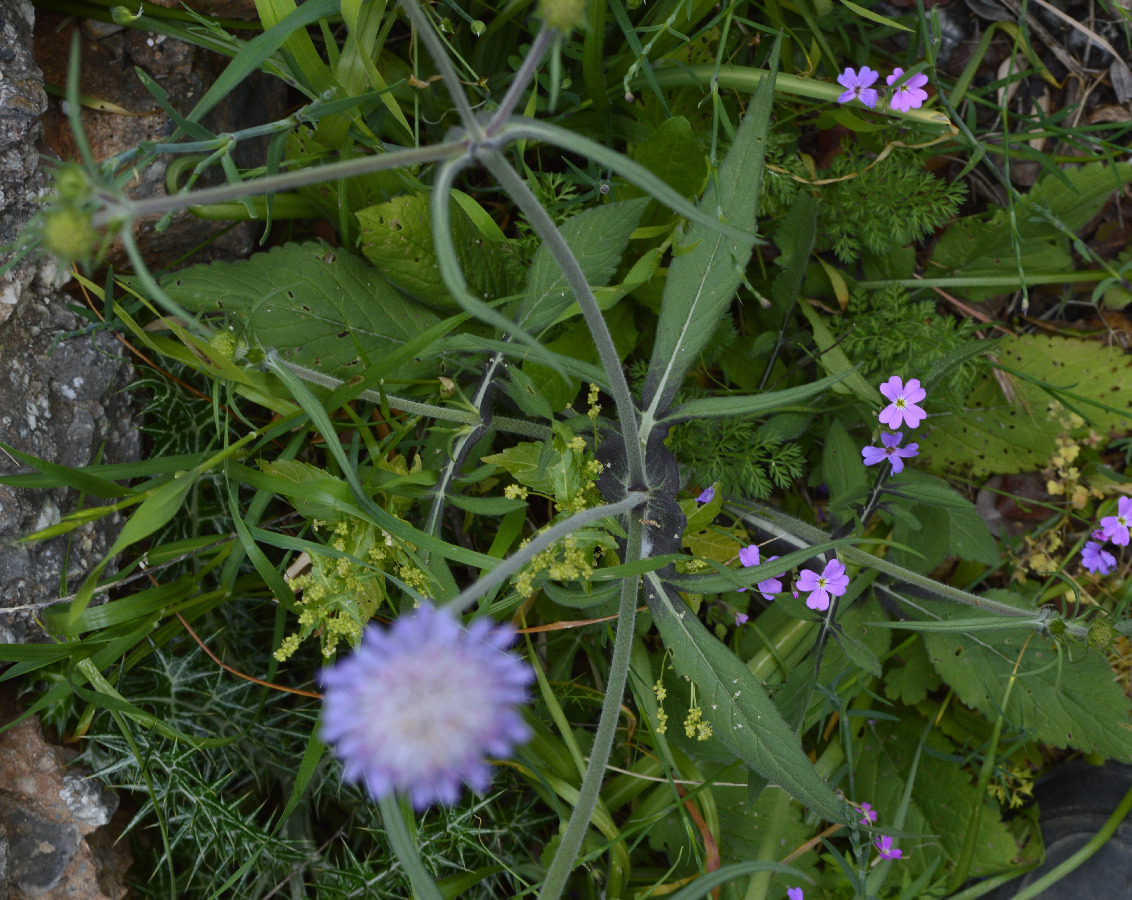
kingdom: Plantae
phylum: Tracheophyta
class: Magnoliopsida
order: Dipsacales
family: Caprifoliaceae
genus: Knautia
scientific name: Knautia magnifica
